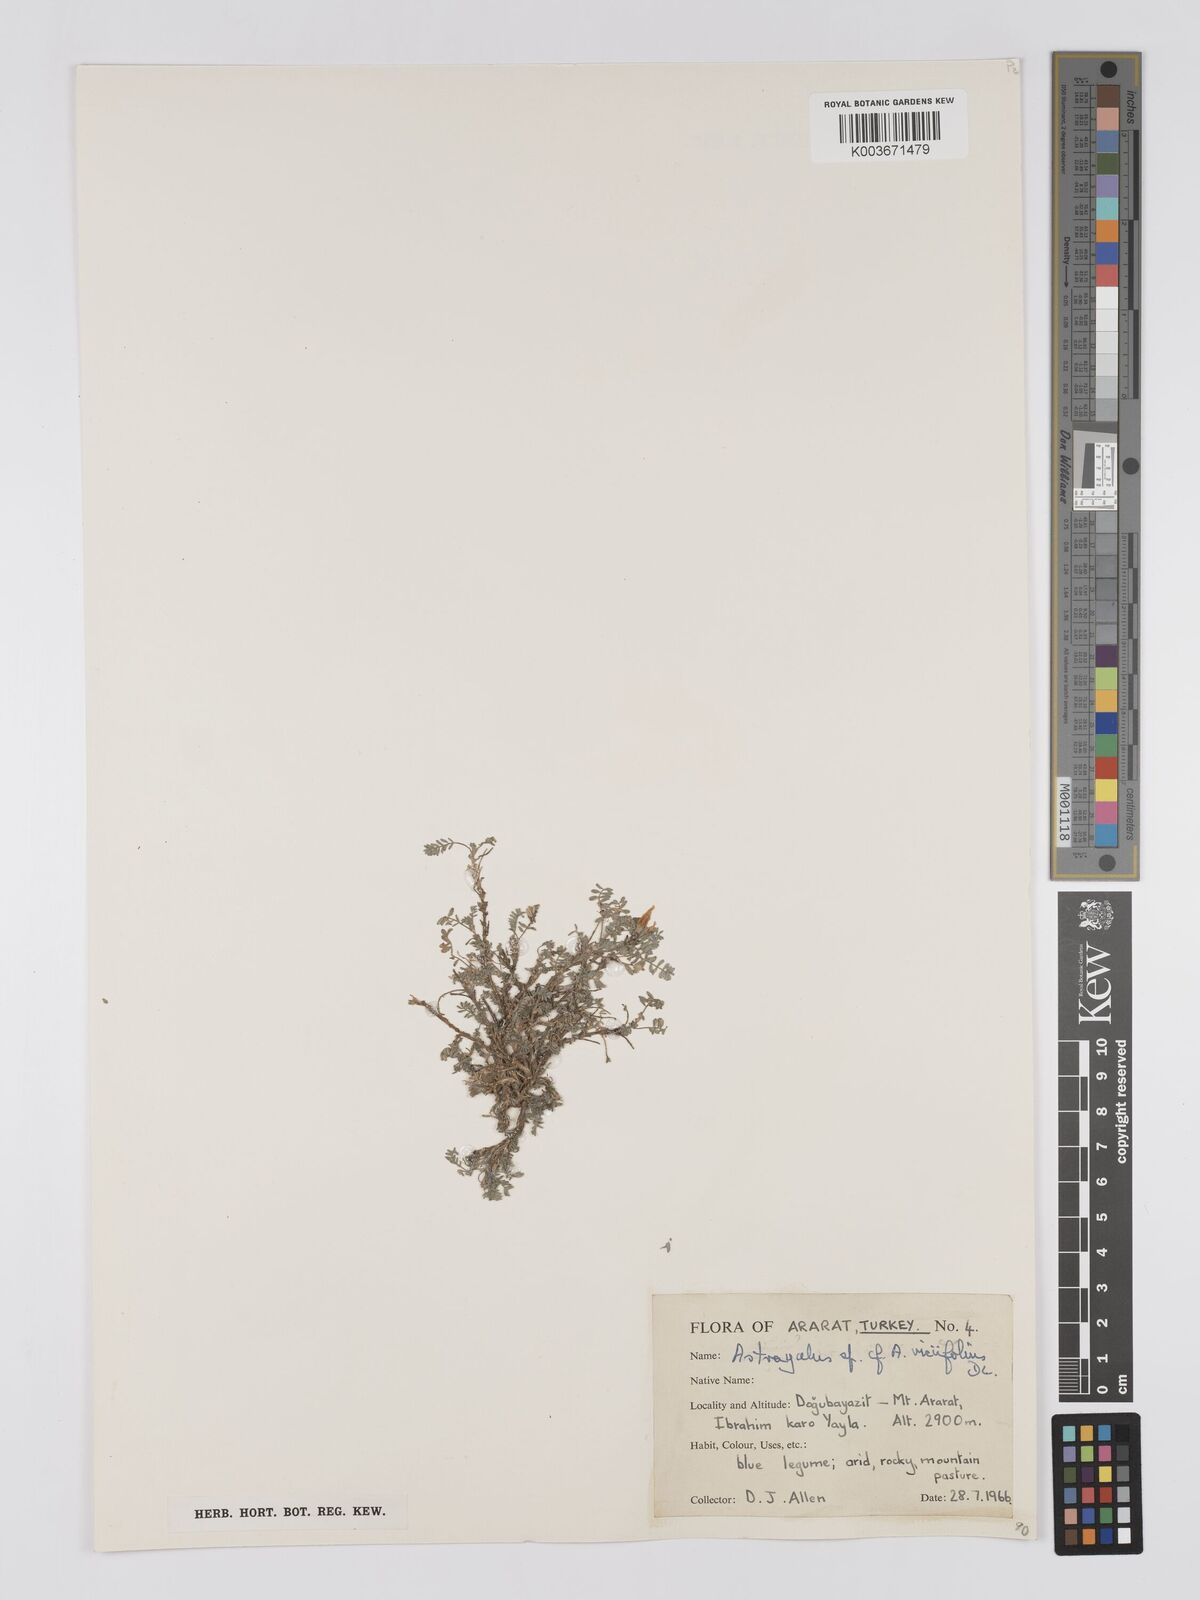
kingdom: Plantae
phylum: Tracheophyta
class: Magnoliopsida
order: Fabales
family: Fabaceae
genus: Astragalus
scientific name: Astragalus humifusus
